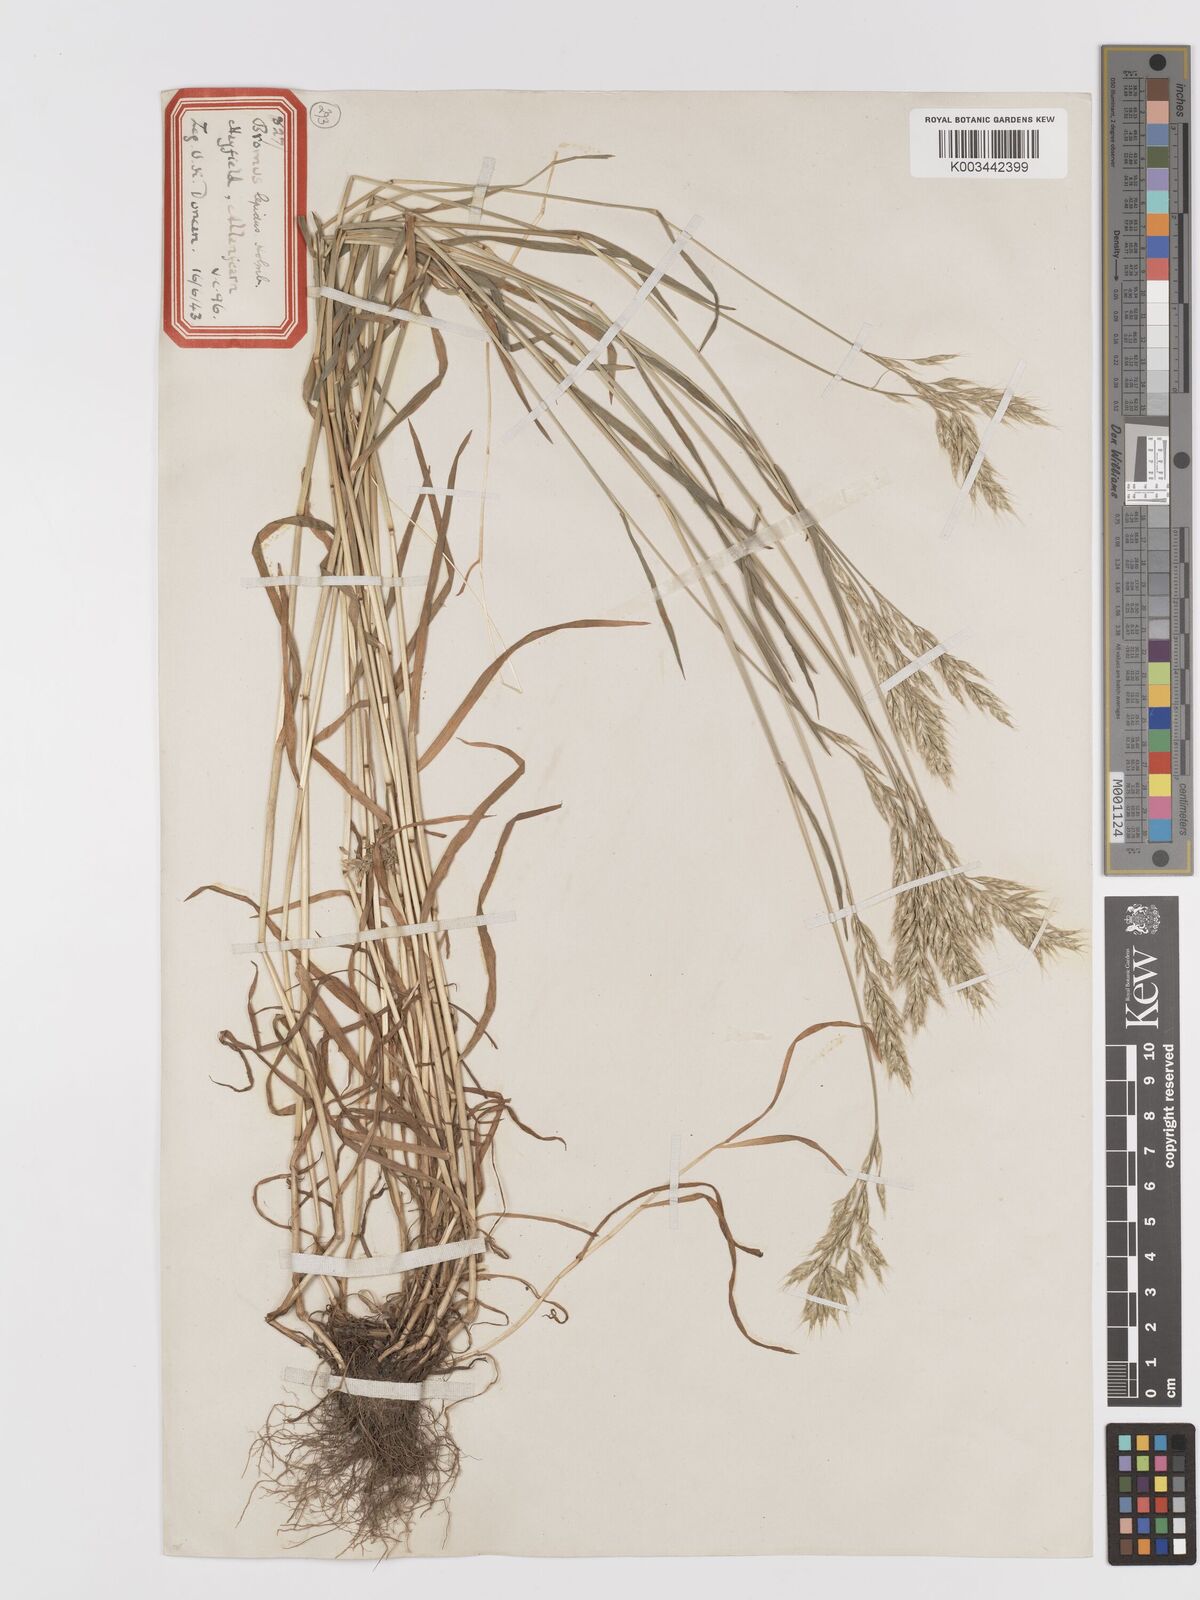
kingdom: Plantae
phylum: Tracheophyta
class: Liliopsida
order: Poales
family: Poaceae
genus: Bromus
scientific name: Bromus lepidus
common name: Slender soft-brome
